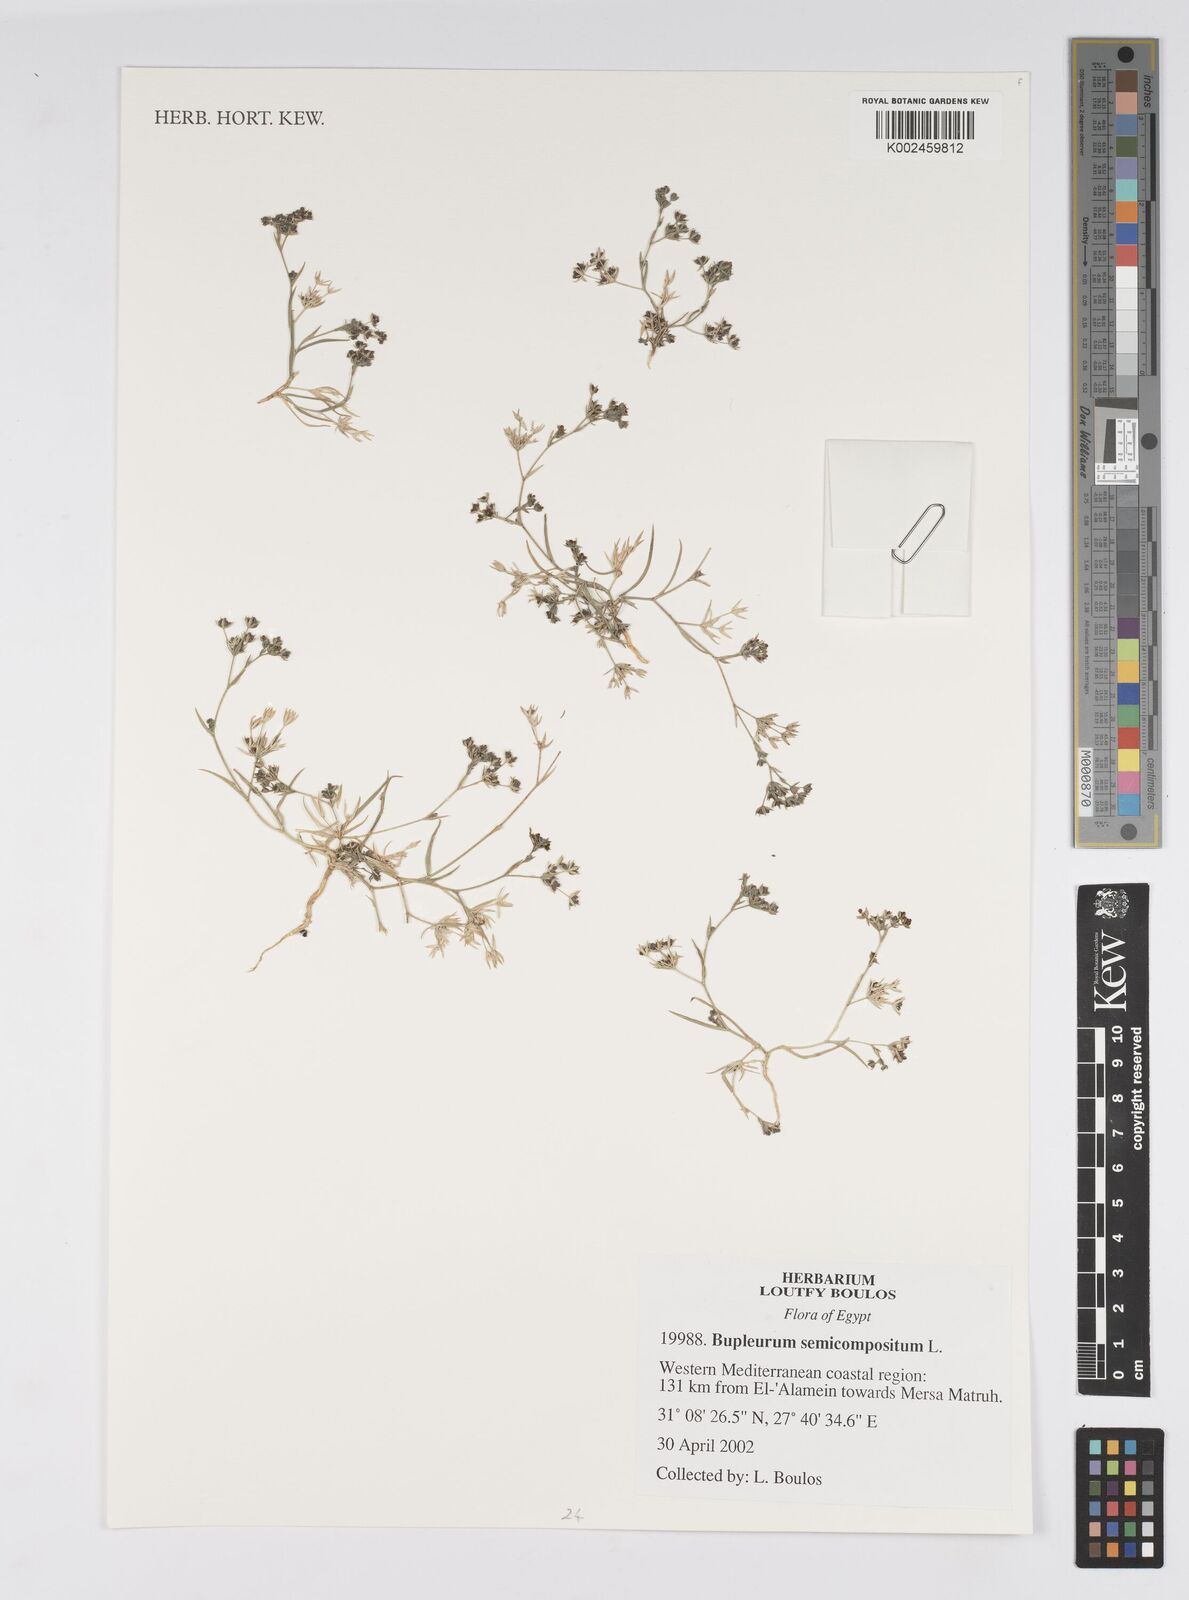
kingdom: Plantae
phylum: Tracheophyta
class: Magnoliopsida
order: Apiales
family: Apiaceae
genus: Bupleurum
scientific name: Bupleurum semicompositum
